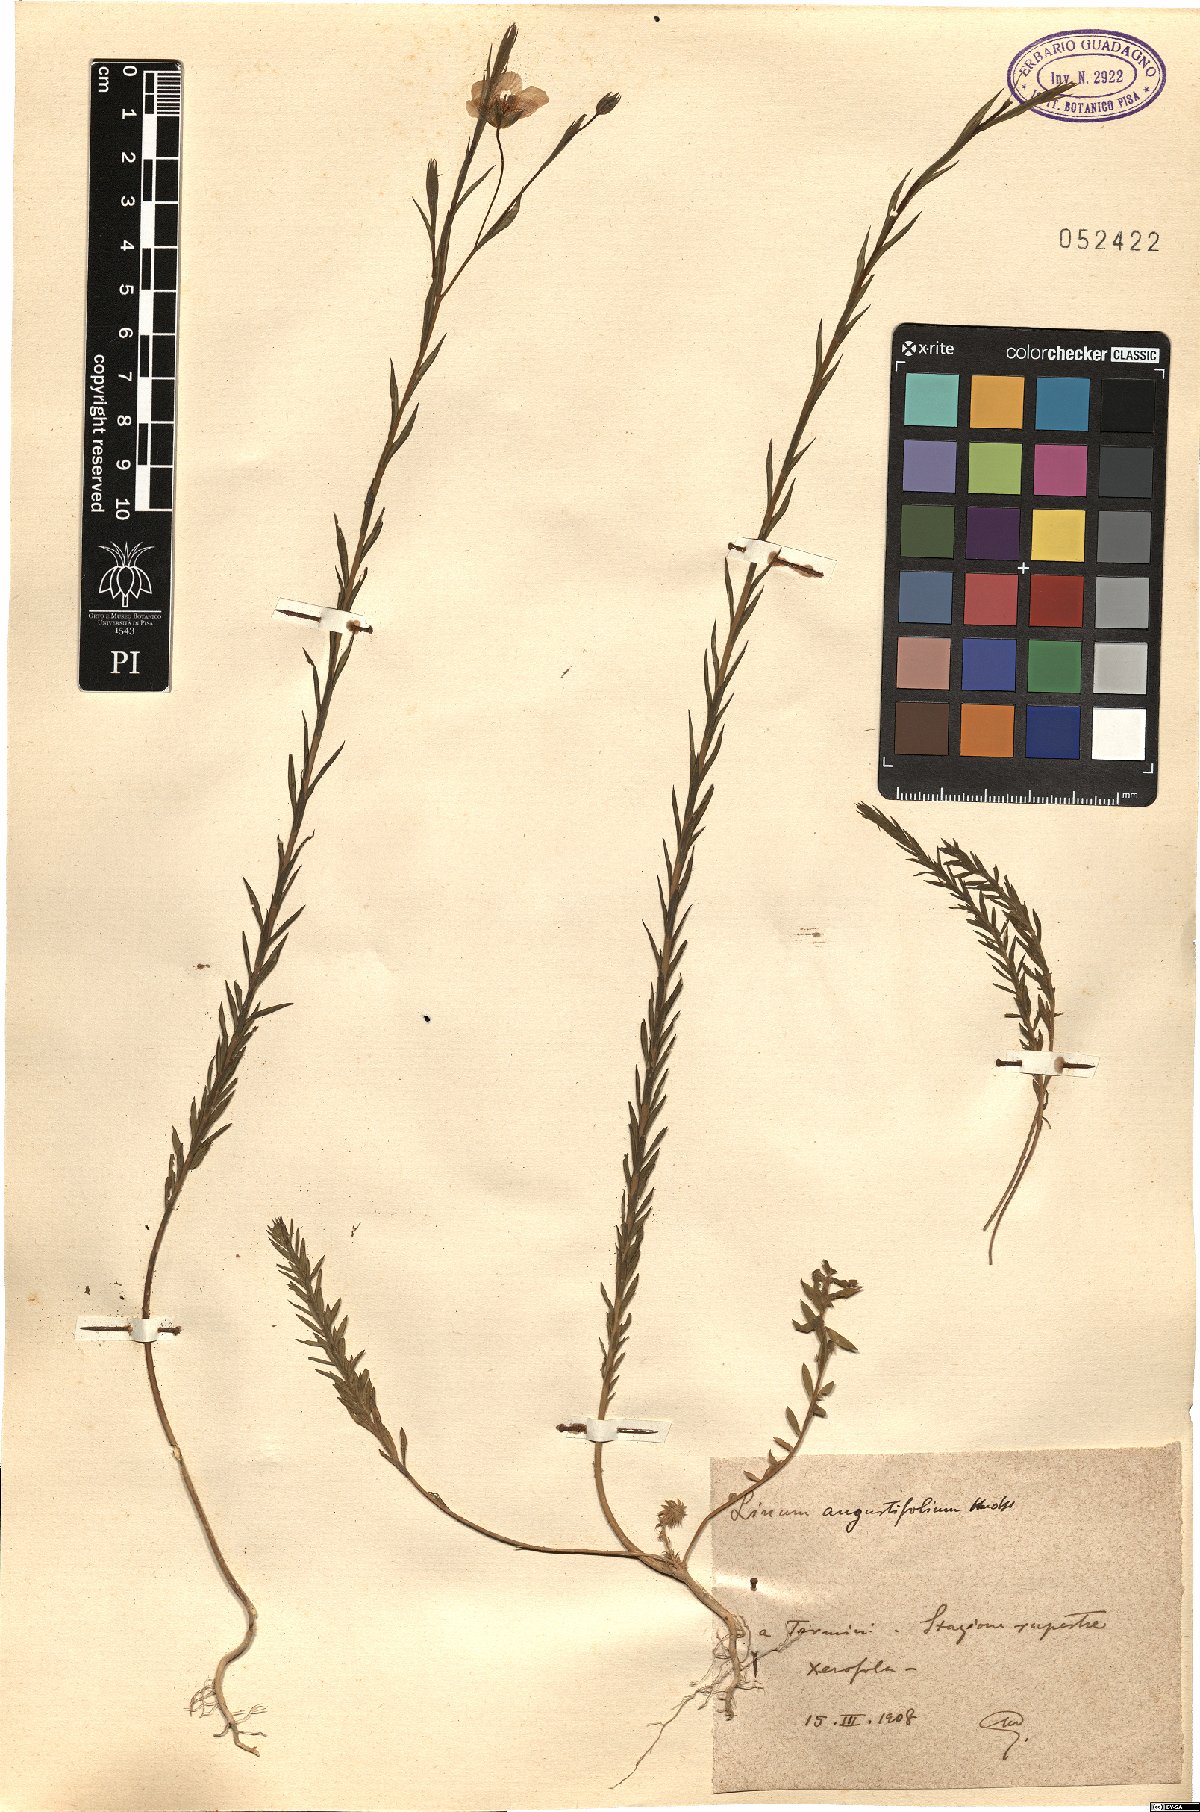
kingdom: Plantae
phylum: Tracheophyta
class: Magnoliopsida
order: Malpighiales
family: Linaceae
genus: Linum
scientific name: Linum bienne
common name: Pale flax
